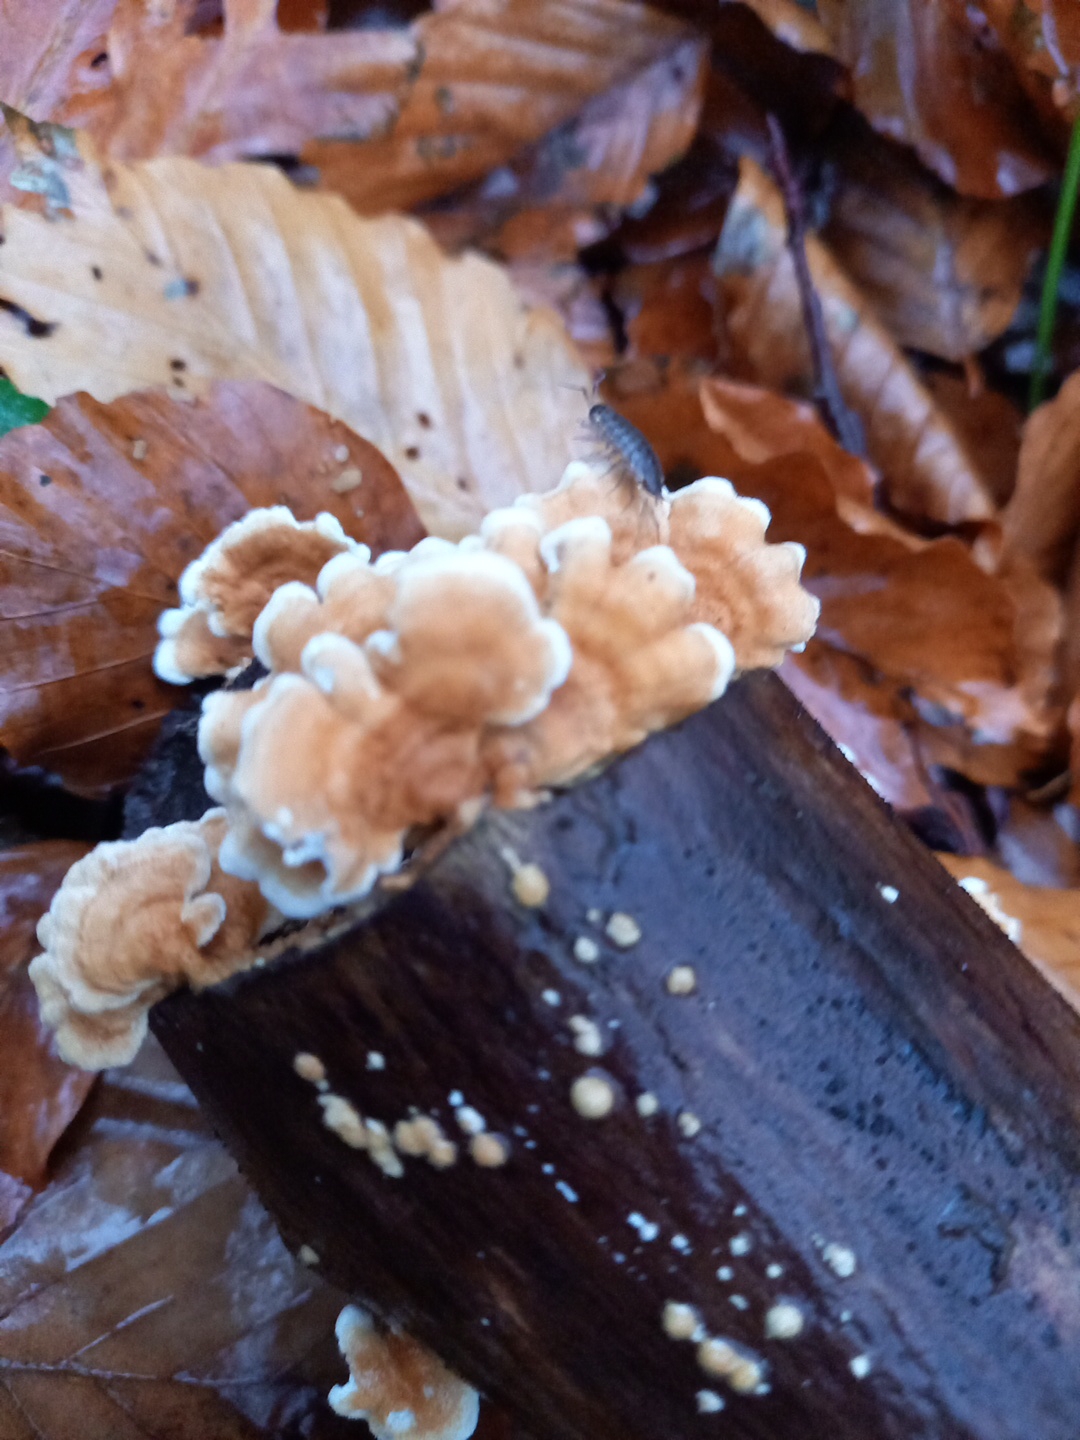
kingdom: Fungi
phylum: Basidiomycota
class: Agaricomycetes
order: Amylocorticiales
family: Amylocorticiaceae
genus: Plicaturopsis
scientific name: Plicaturopsis crispa
